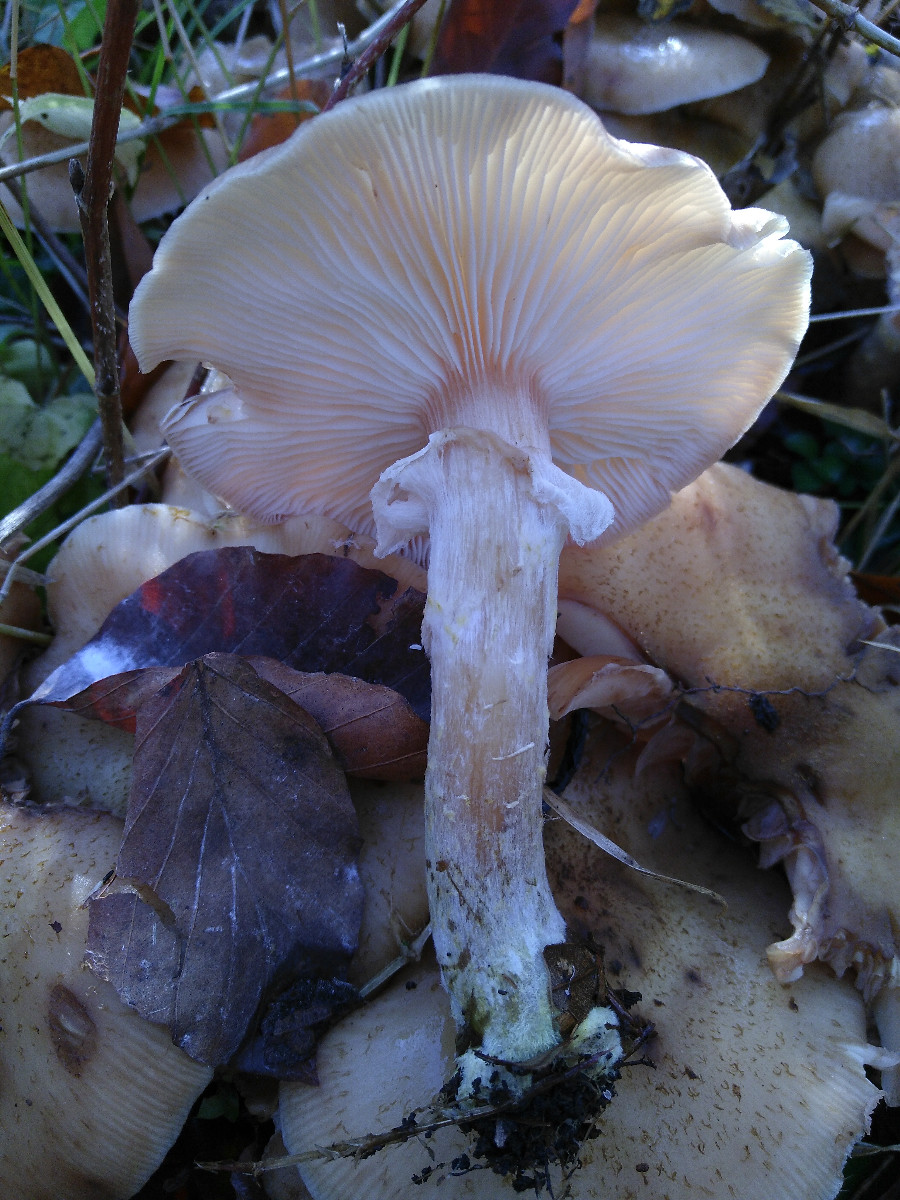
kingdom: Fungi
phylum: Basidiomycota
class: Agaricomycetes
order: Agaricales
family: Physalacriaceae
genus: Armillaria
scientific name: Armillaria
